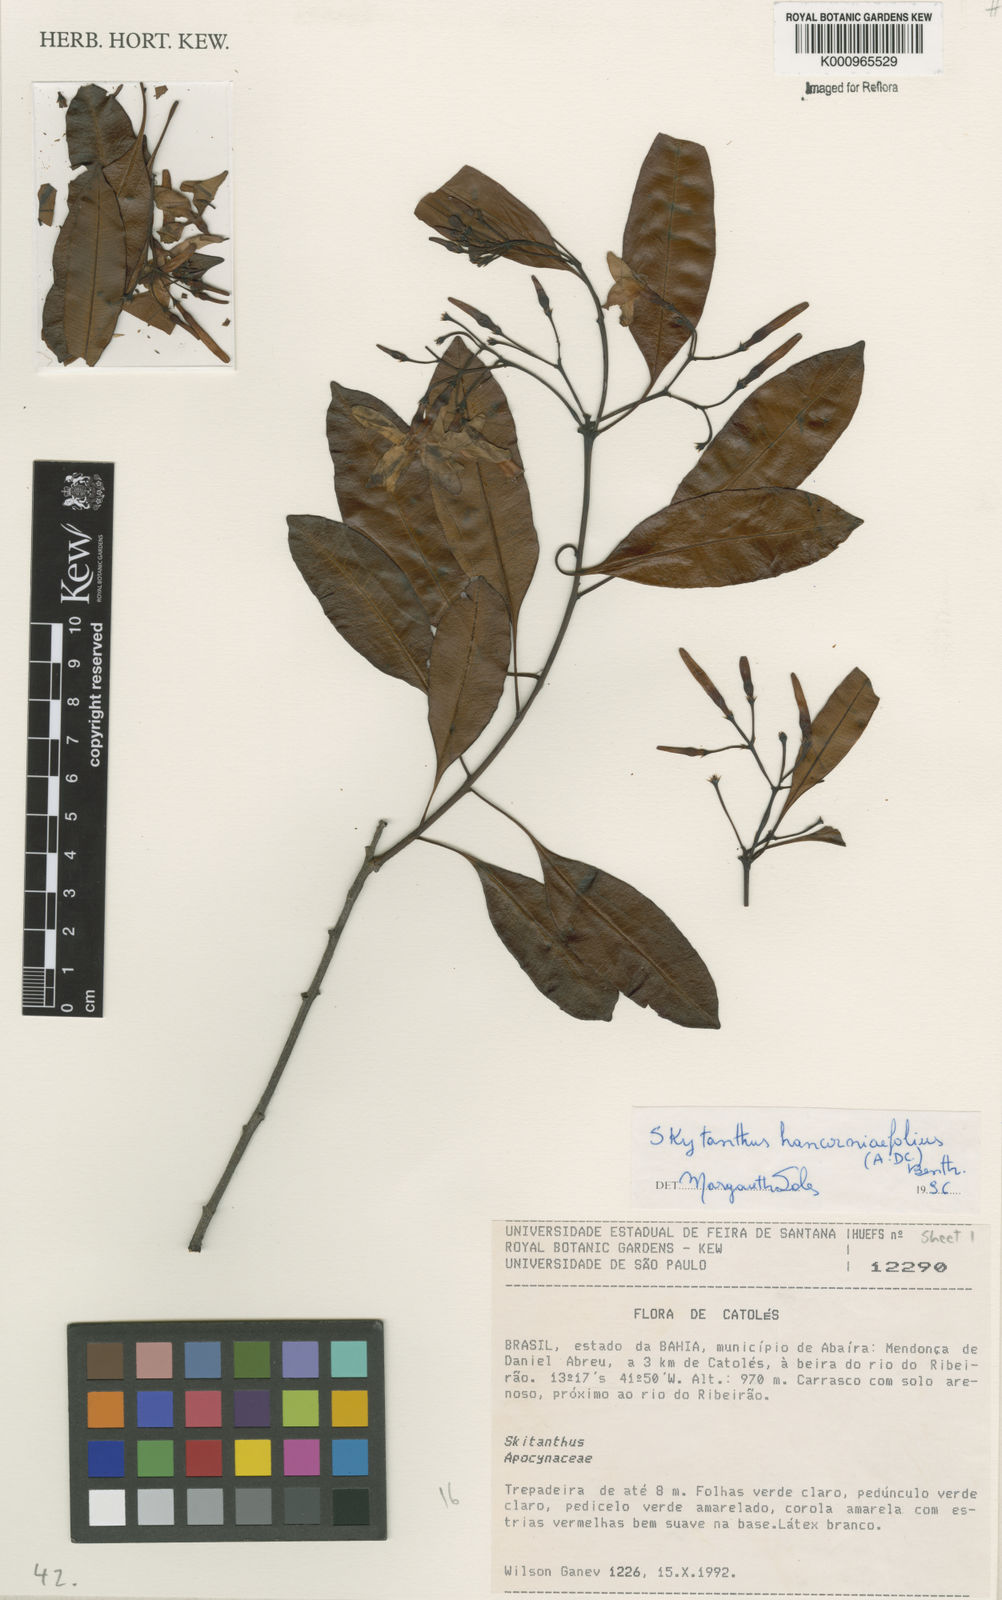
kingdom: Plantae
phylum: Tracheophyta
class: Magnoliopsida
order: Gentianales
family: Apocynaceae
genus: Skytanthus
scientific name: Skytanthus hancorniifolius
